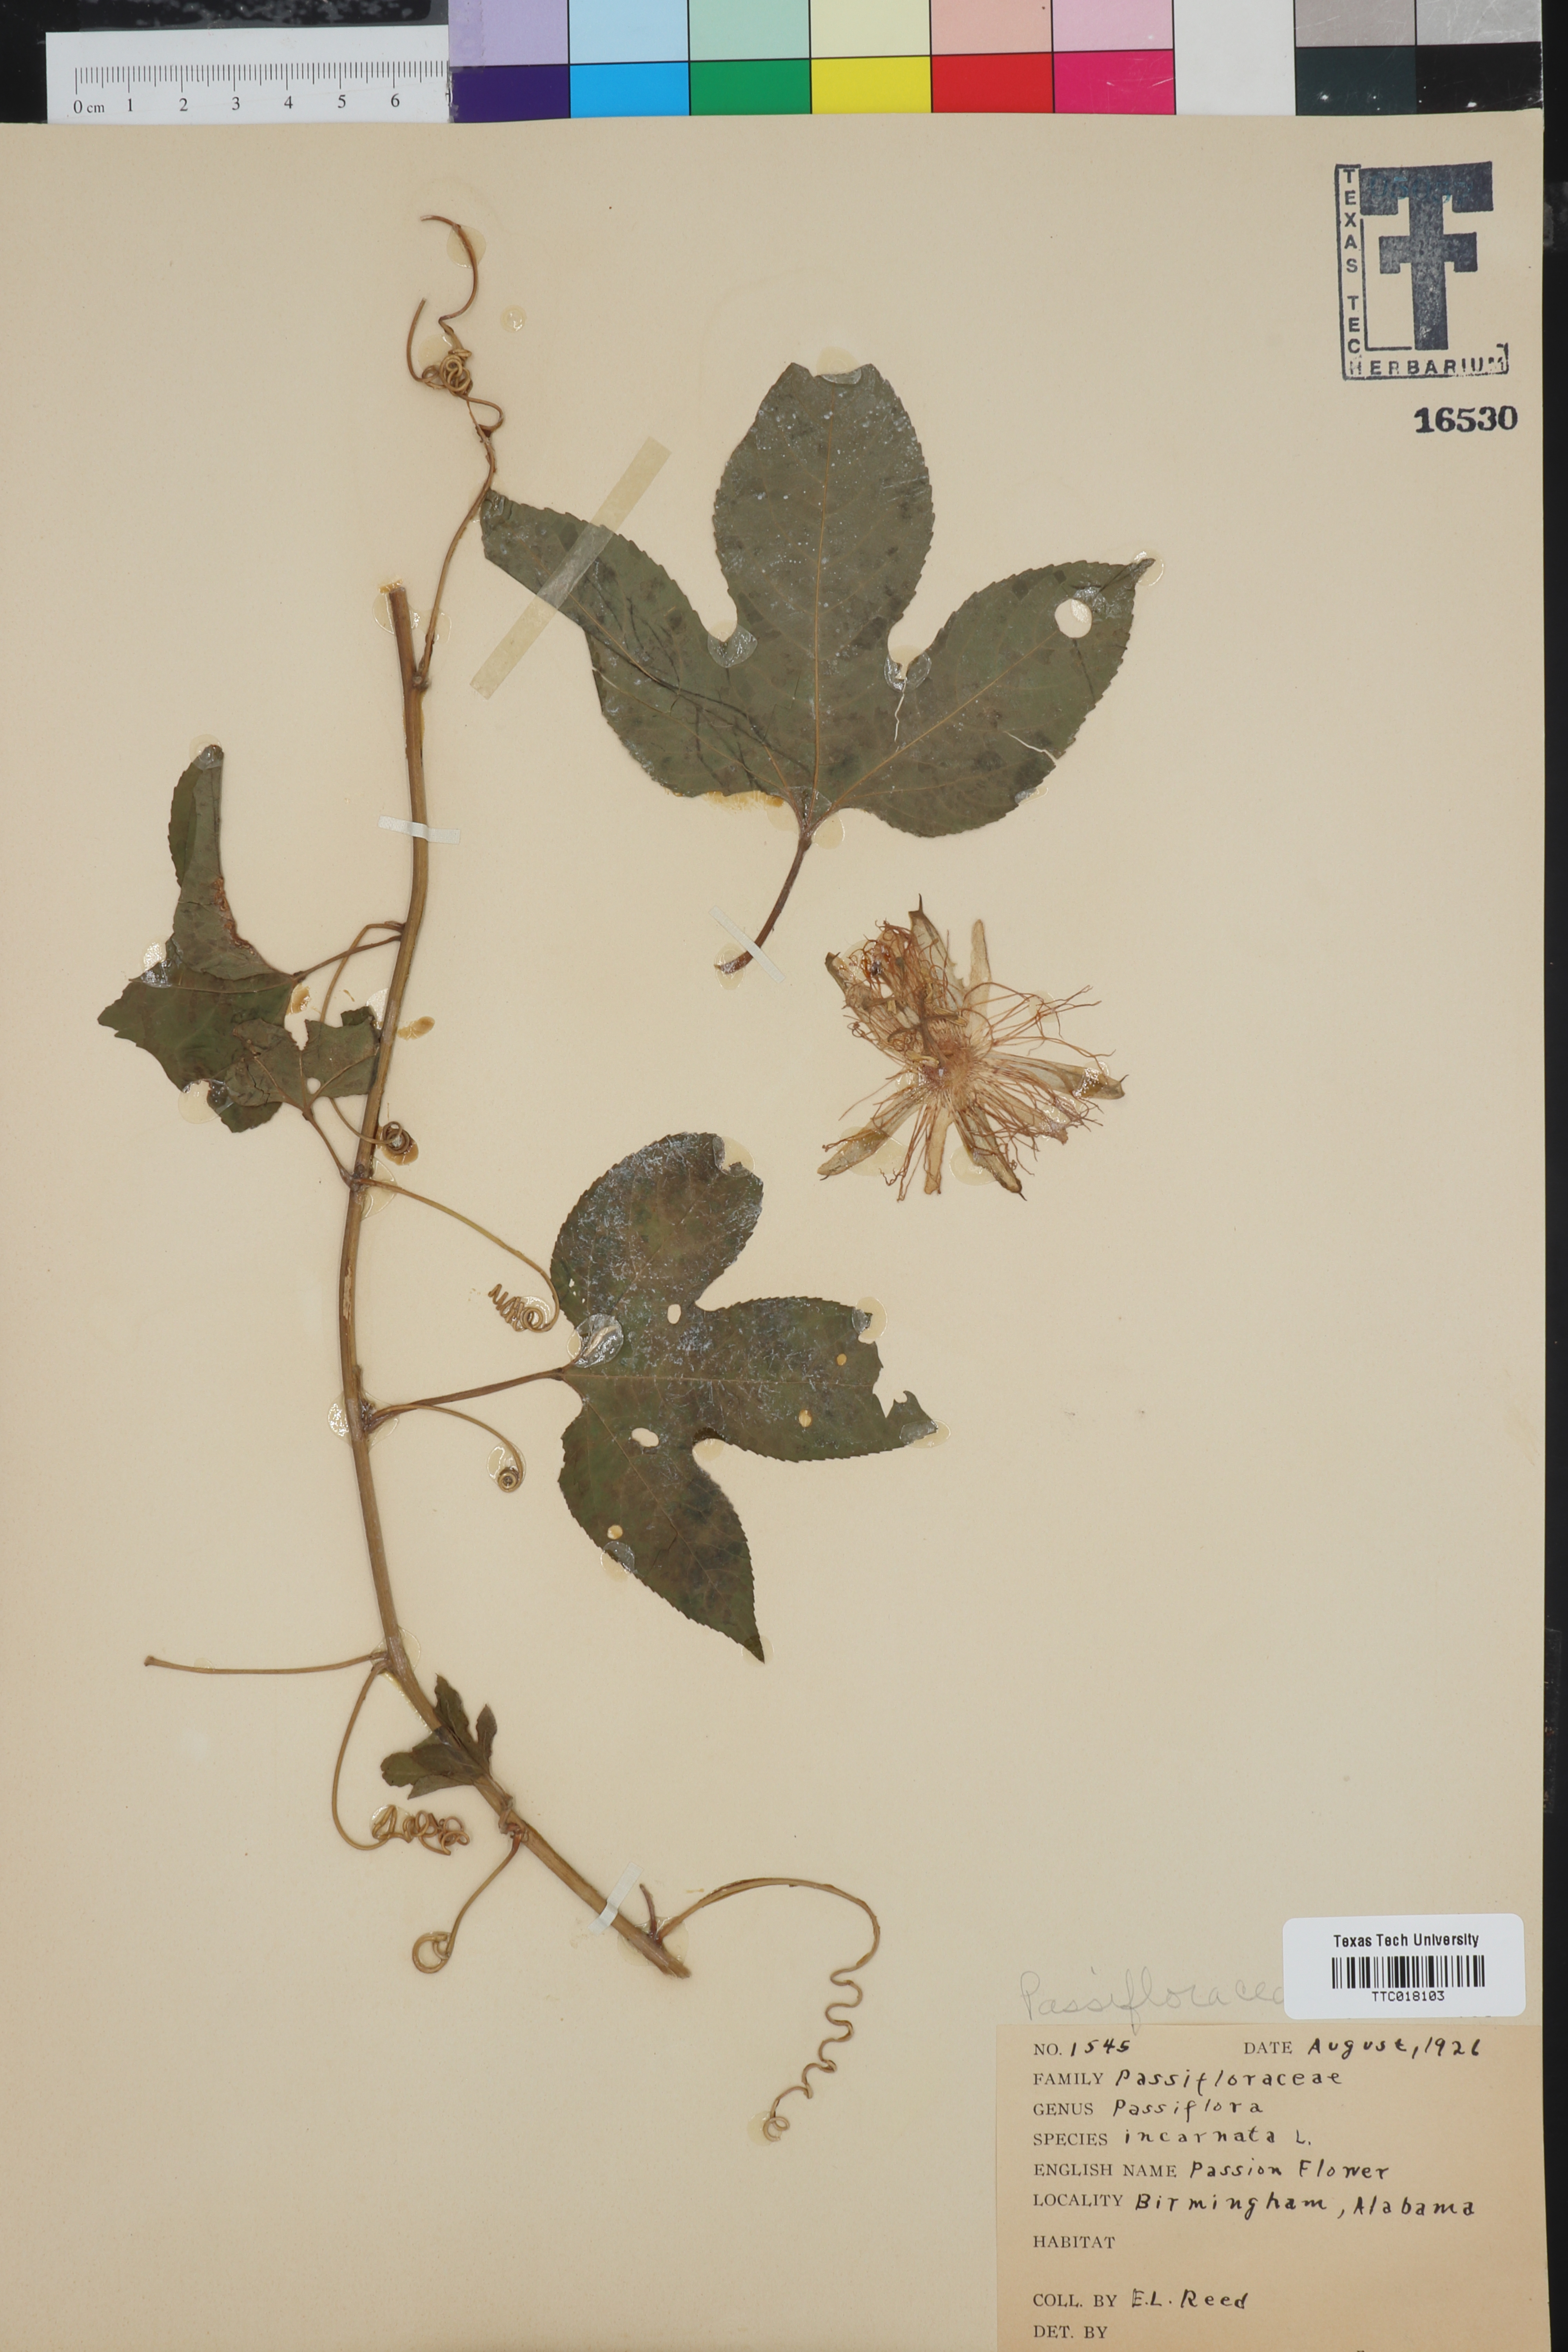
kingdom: Plantae
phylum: Tracheophyta
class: Magnoliopsida
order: Malpighiales
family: Passifloraceae
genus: Passiflora
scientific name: Passiflora incarnata
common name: Apricot-vine
